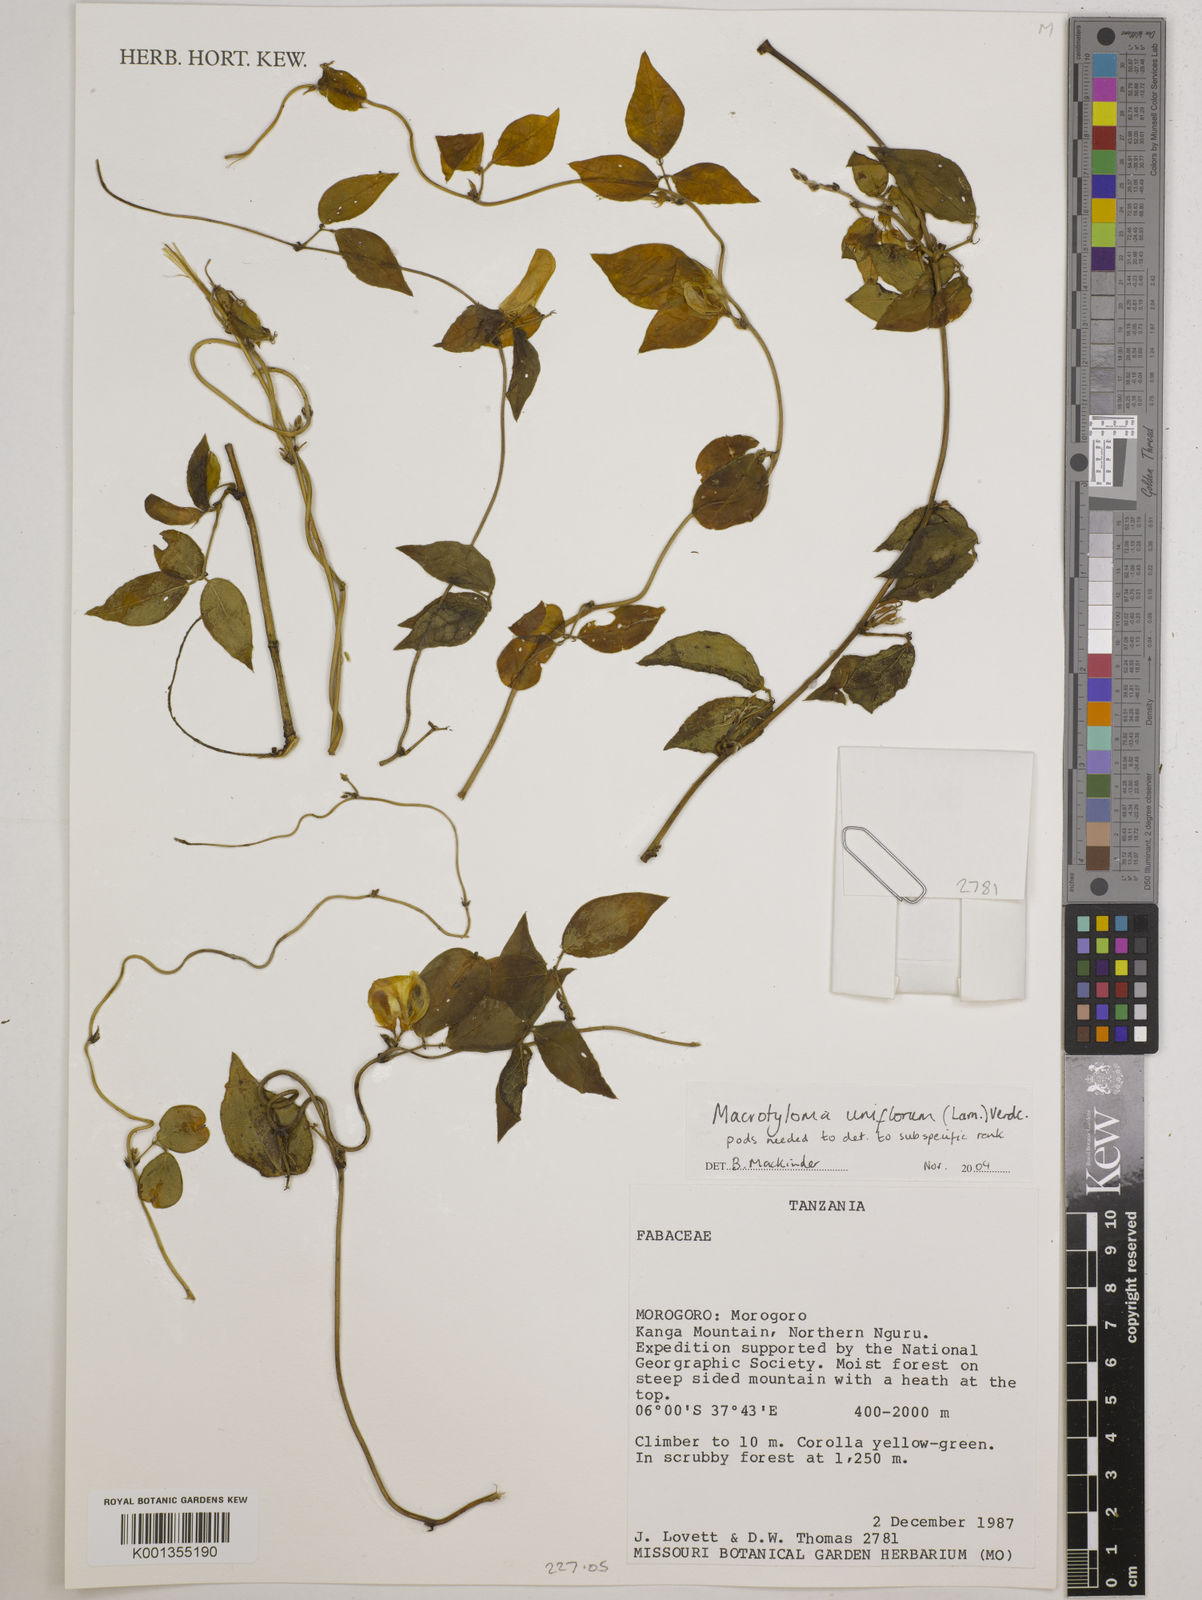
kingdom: Plantae
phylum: Tracheophyta
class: Magnoliopsida
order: Fabales
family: Fabaceae
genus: Macrotyloma
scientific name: Macrotyloma uniflorum
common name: Horse gram
